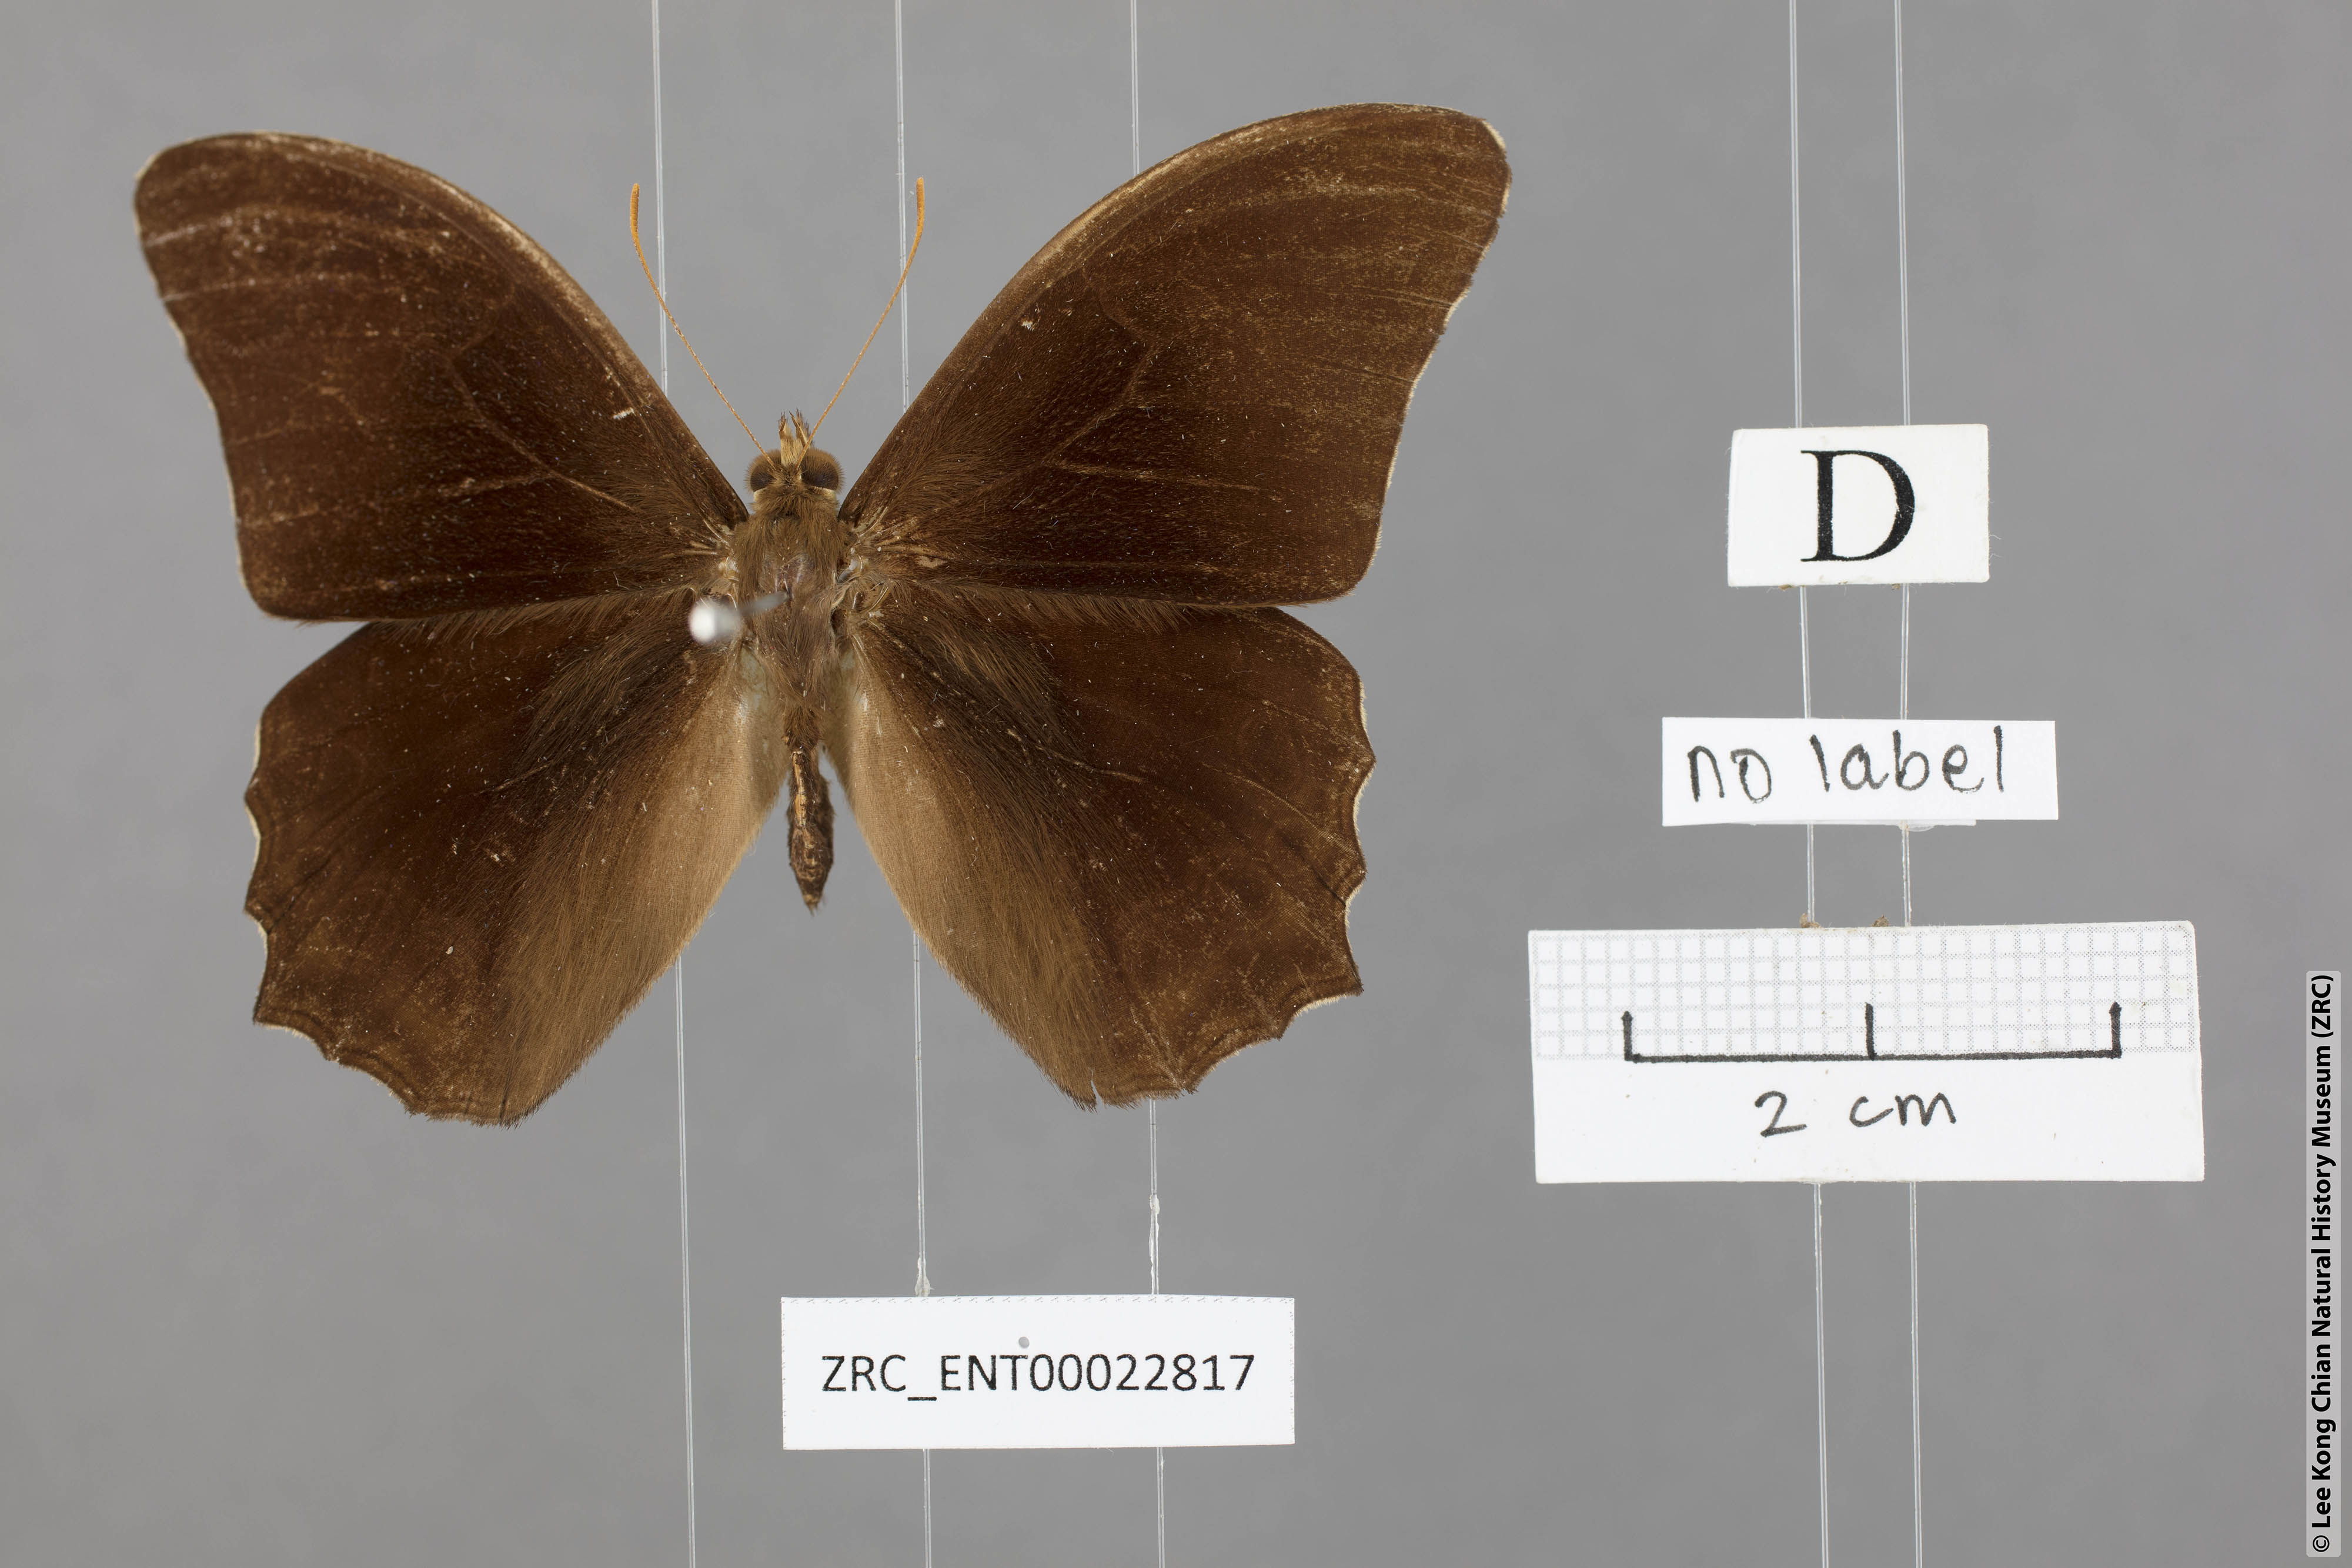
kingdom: Animalia
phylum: Arthropoda
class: Insecta
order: Lepidoptera
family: Nymphalidae
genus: Lethe
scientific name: Lethe chandica
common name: Angled red forester
